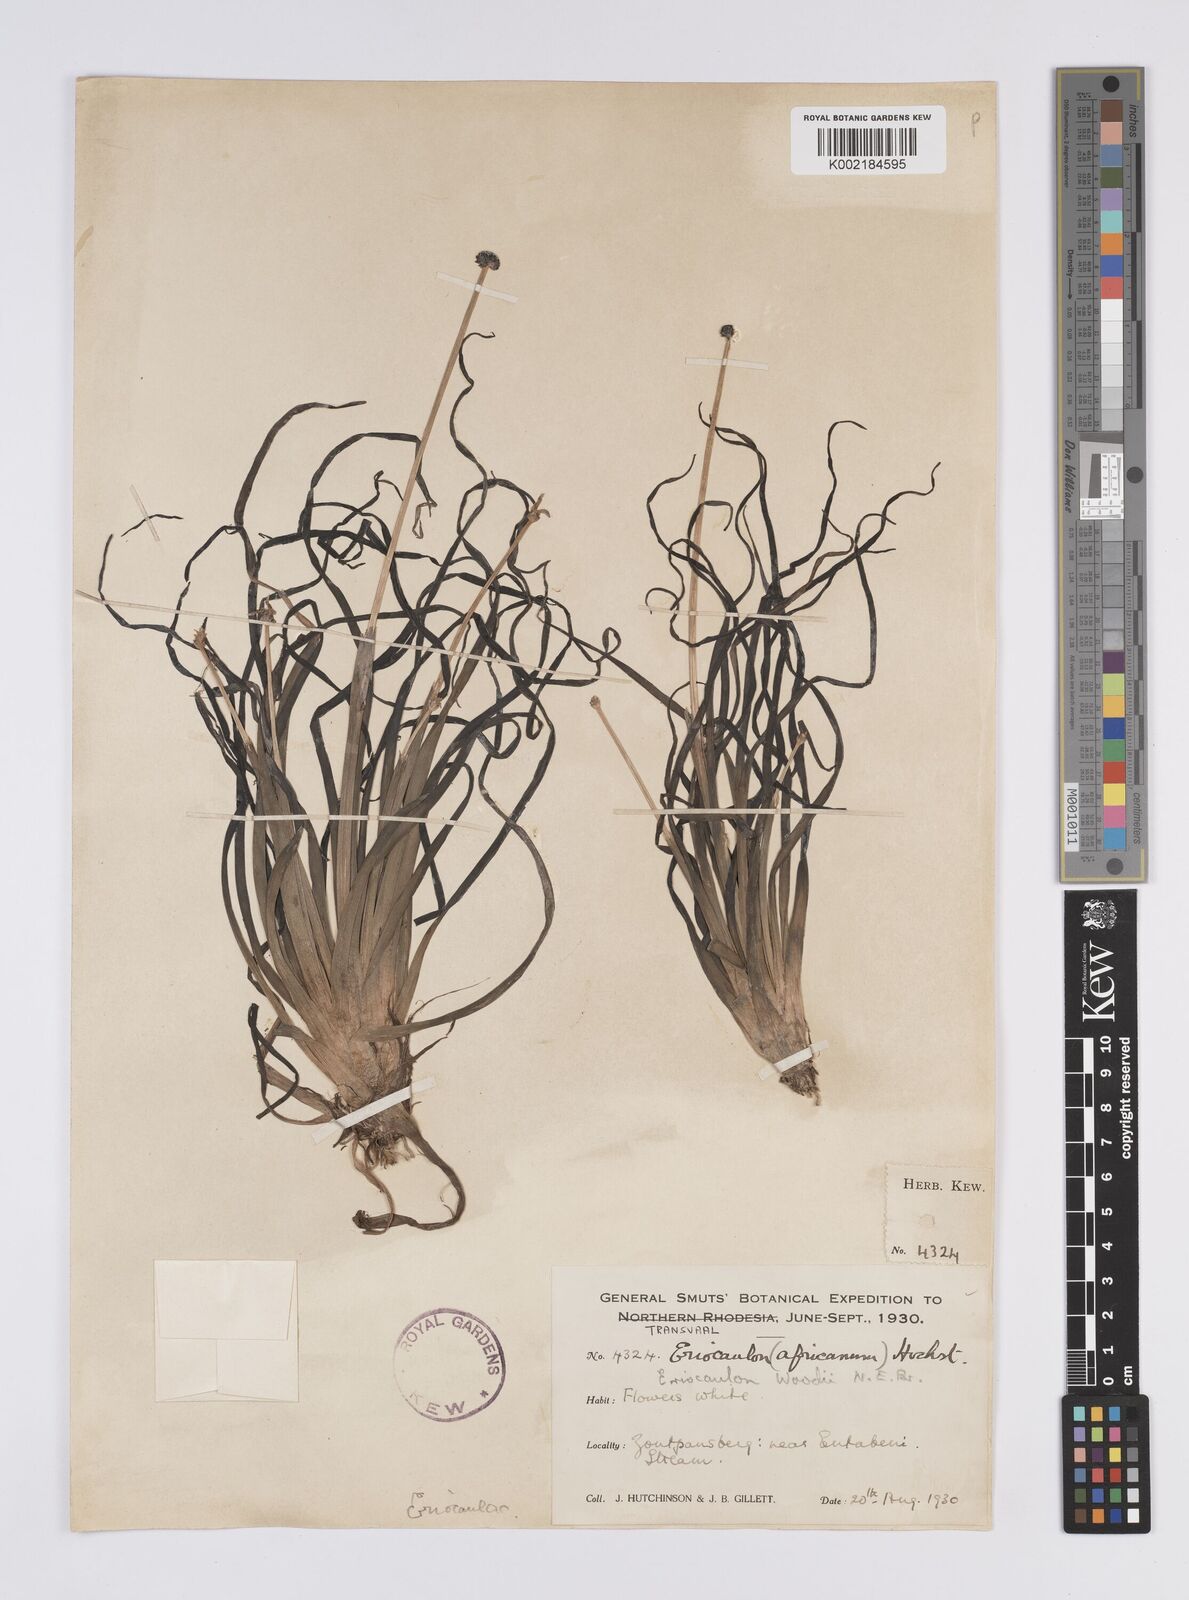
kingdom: Plantae
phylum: Tracheophyta
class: Liliopsida
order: Poales
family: Eriocaulaceae
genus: Eriocaulon
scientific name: Eriocaulon africanum
